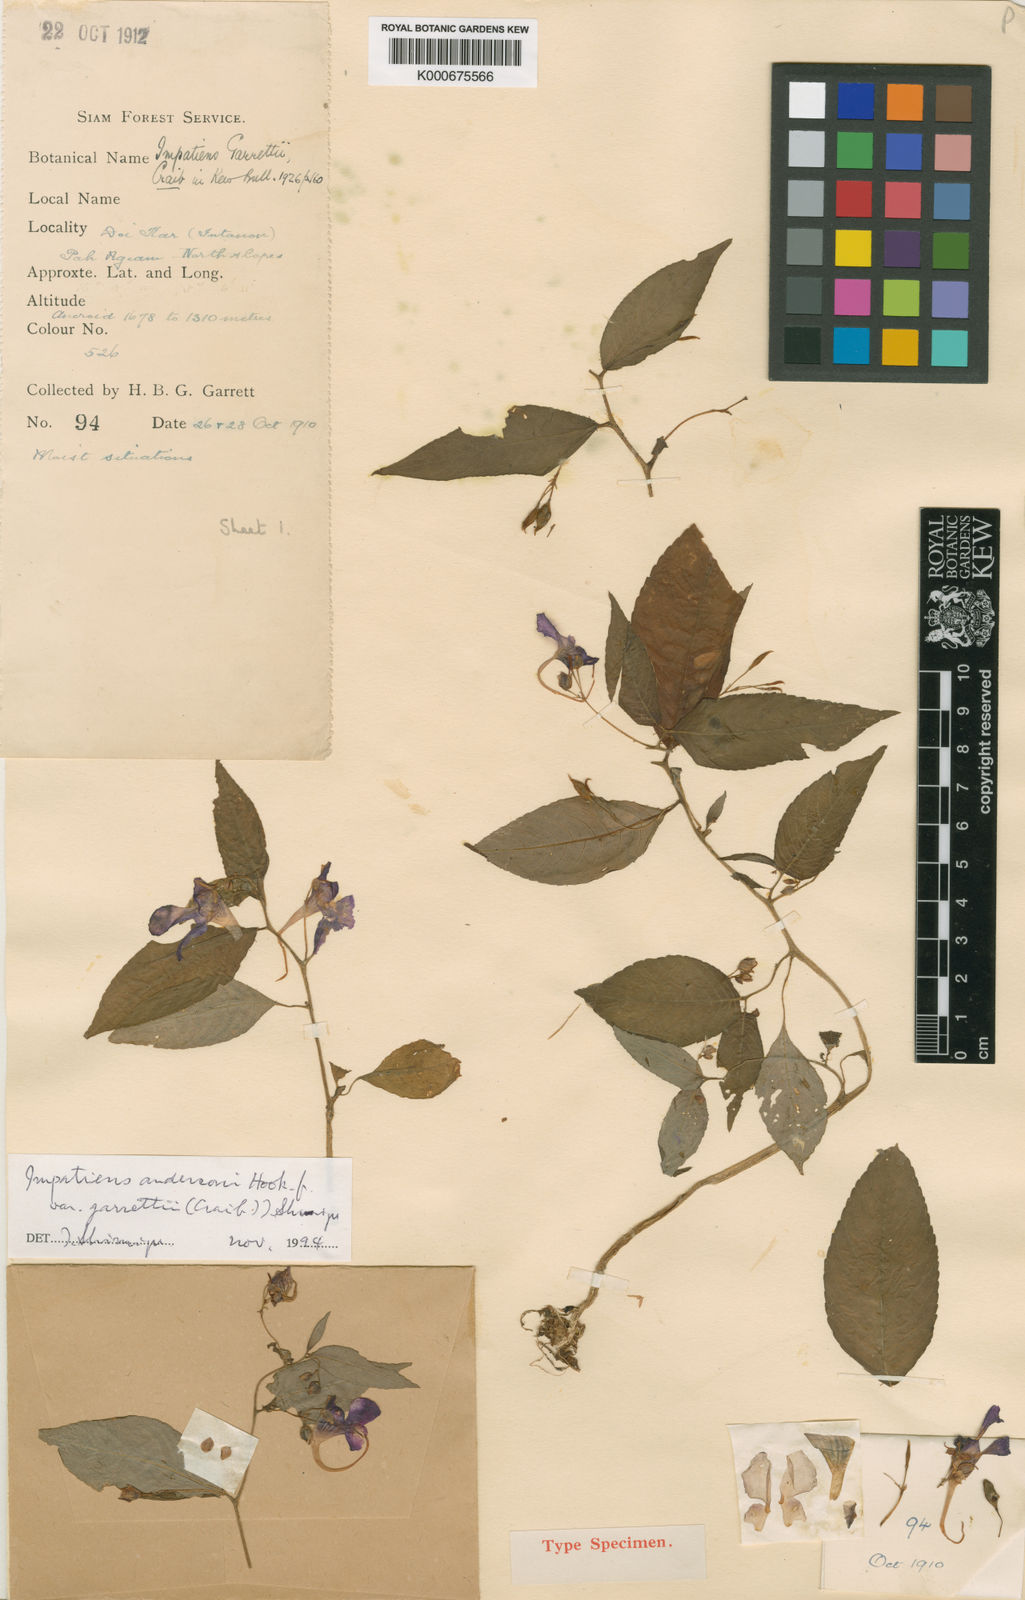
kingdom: Plantae
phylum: Tracheophyta
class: Magnoliopsida
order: Ericales
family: Balsaminaceae
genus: Impatiens
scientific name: Impatiens porrecta
